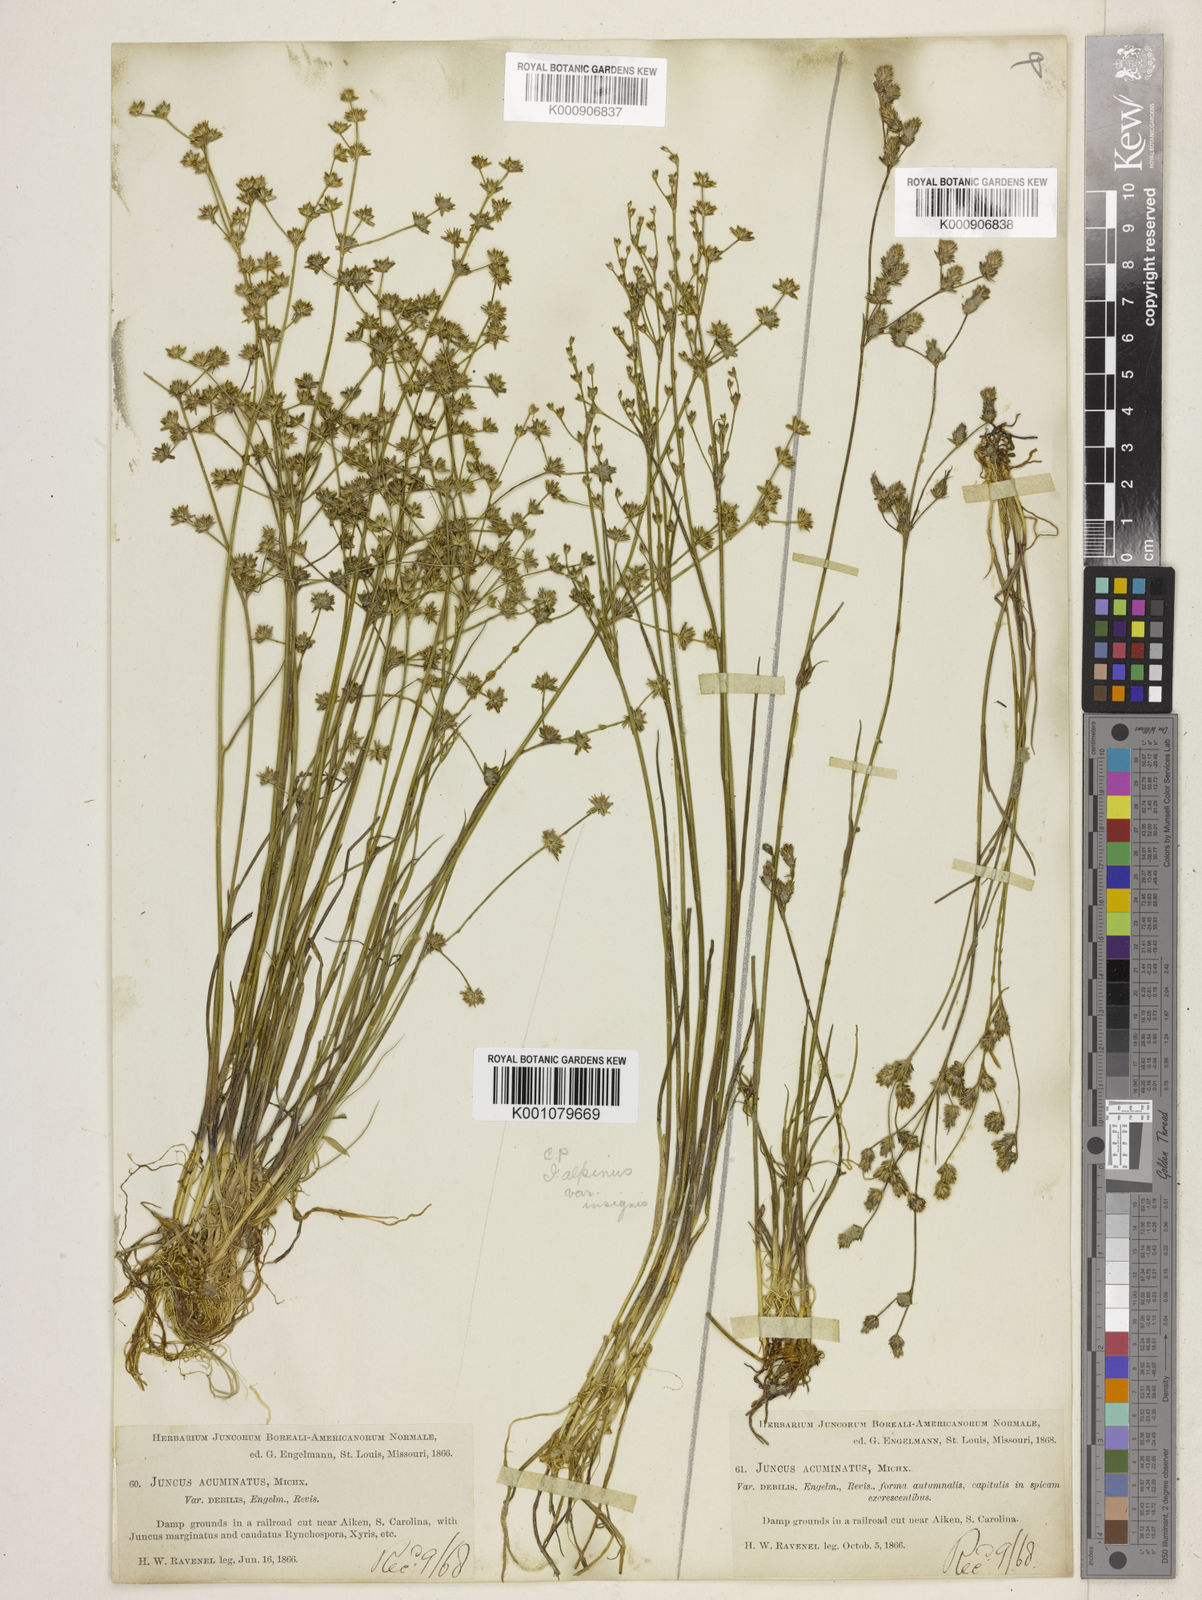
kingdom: Plantae
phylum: Tracheophyta
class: Liliopsida
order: Poales
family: Juncaceae
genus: Juncus
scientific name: Juncus debilis
